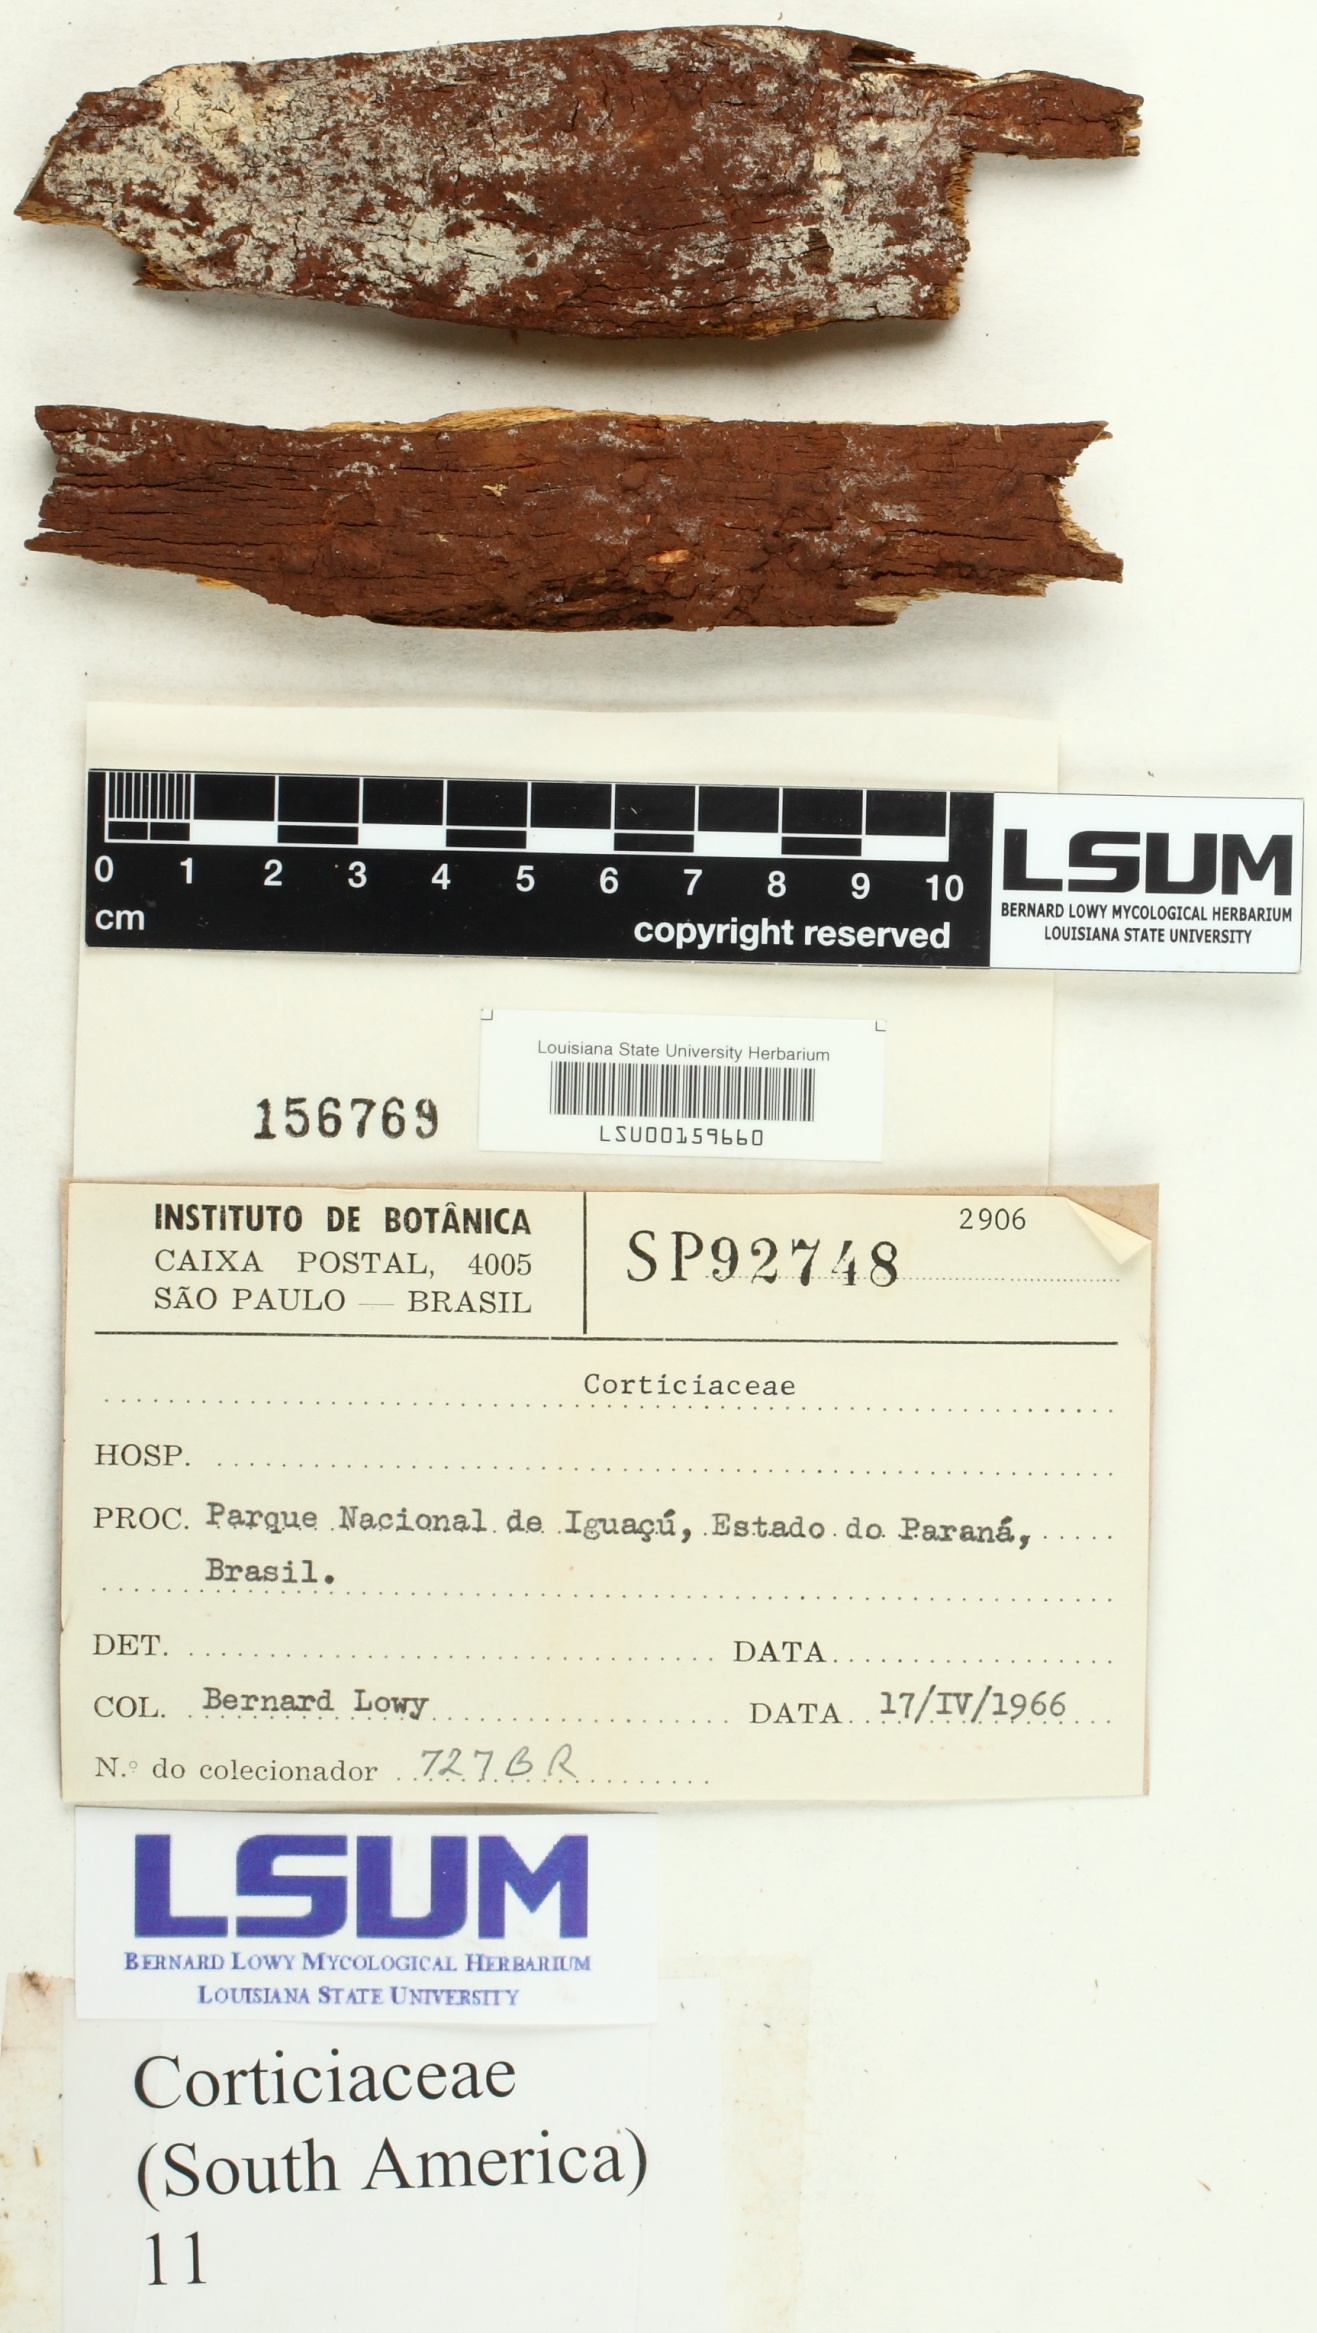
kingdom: Fungi
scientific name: Fungi
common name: Fungi
